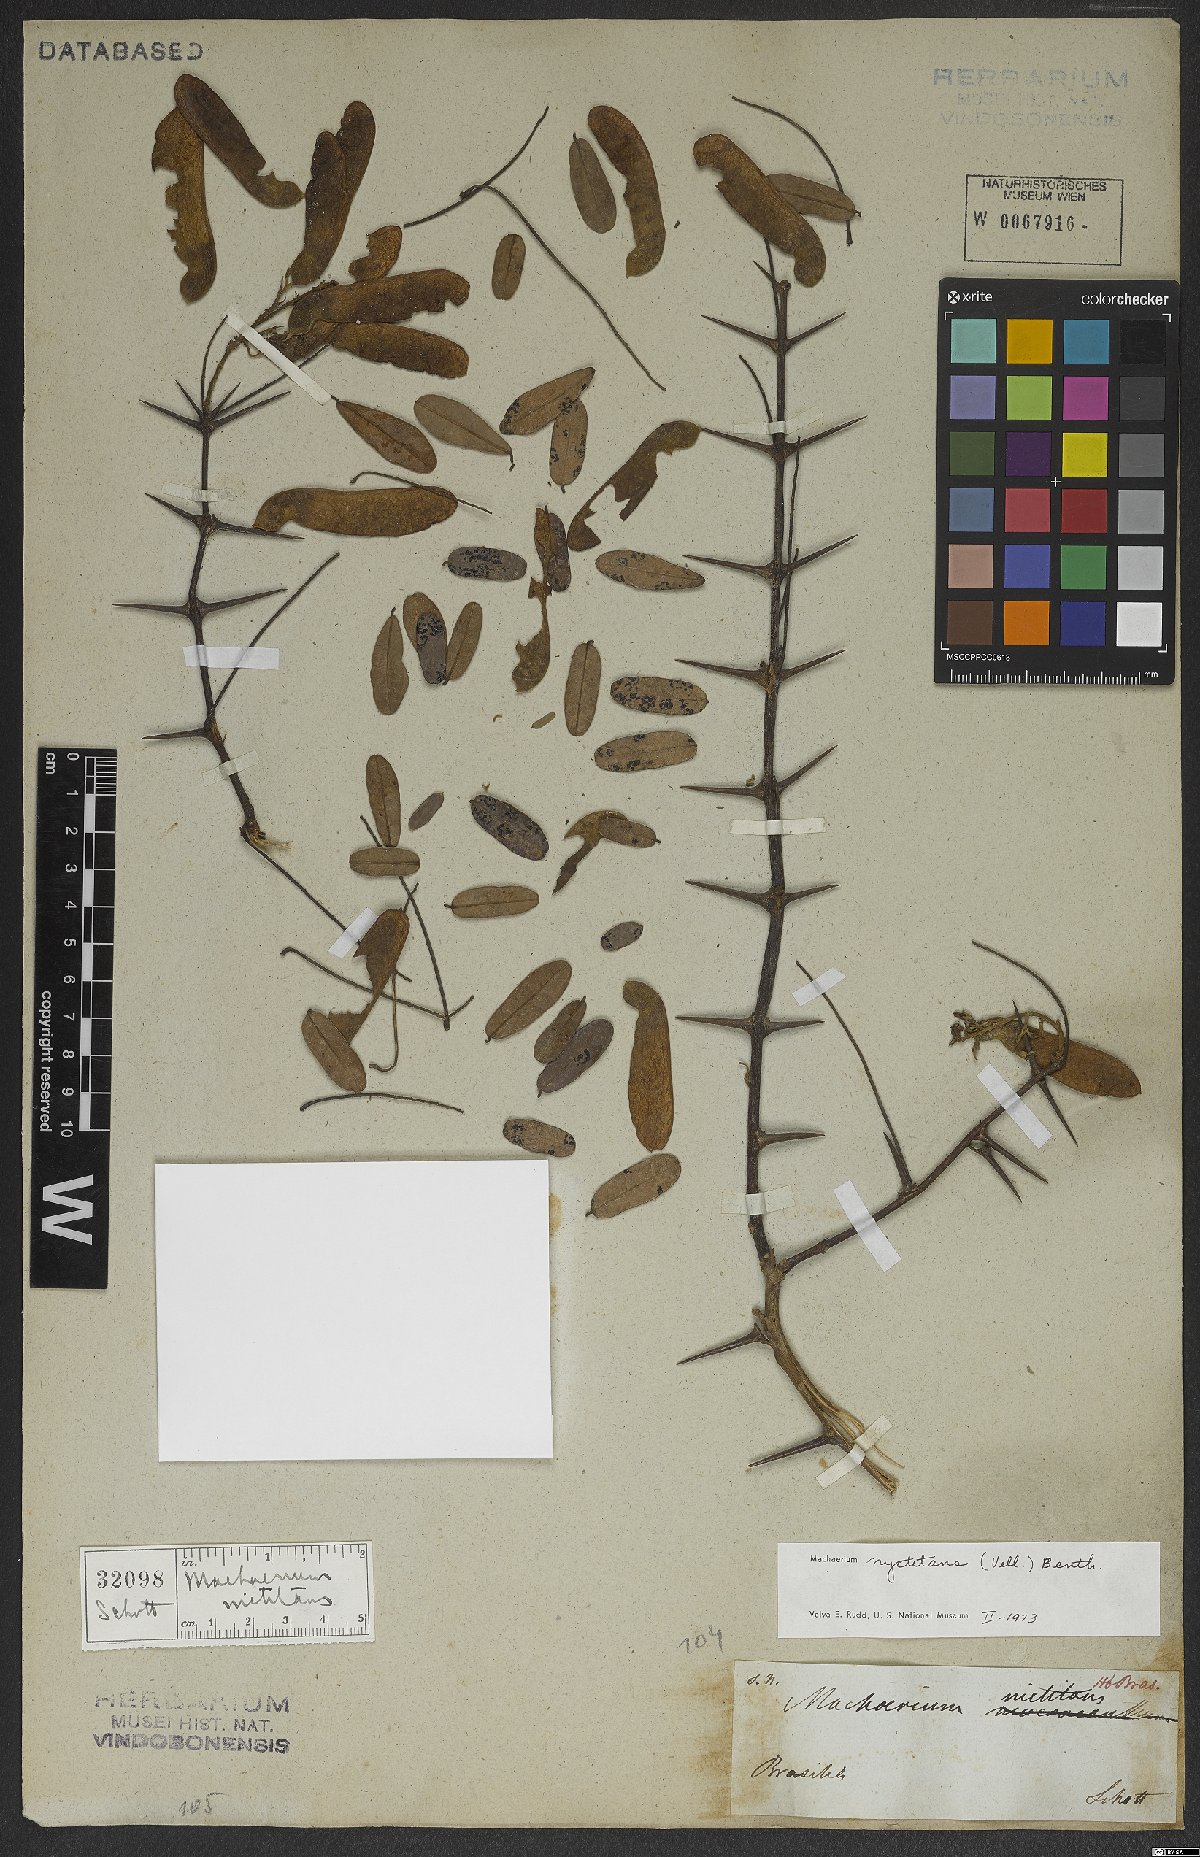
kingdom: Plantae
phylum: Tracheophyta
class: Magnoliopsida
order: Fabales
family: Fabaceae
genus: Machaerium
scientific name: Machaerium nyctitans
